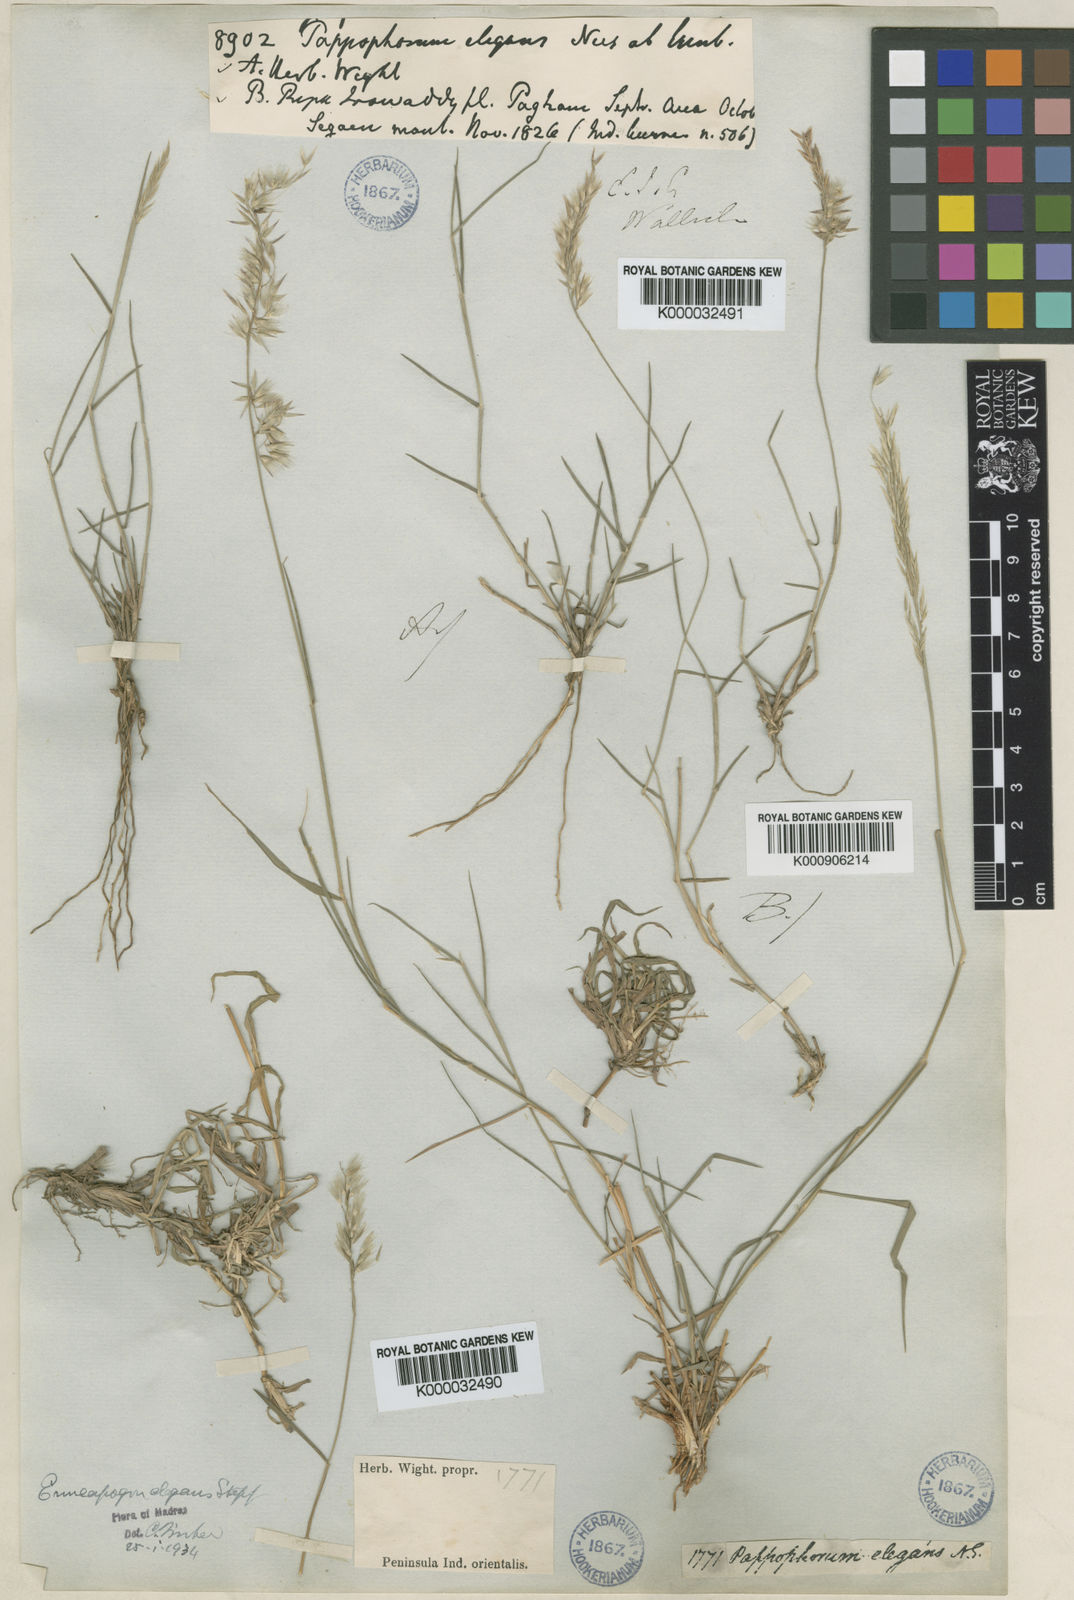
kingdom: Plantae
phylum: Tracheophyta
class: Liliopsida
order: Poales
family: Poaceae
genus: Enneapogon
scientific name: Enneapogon persicus
